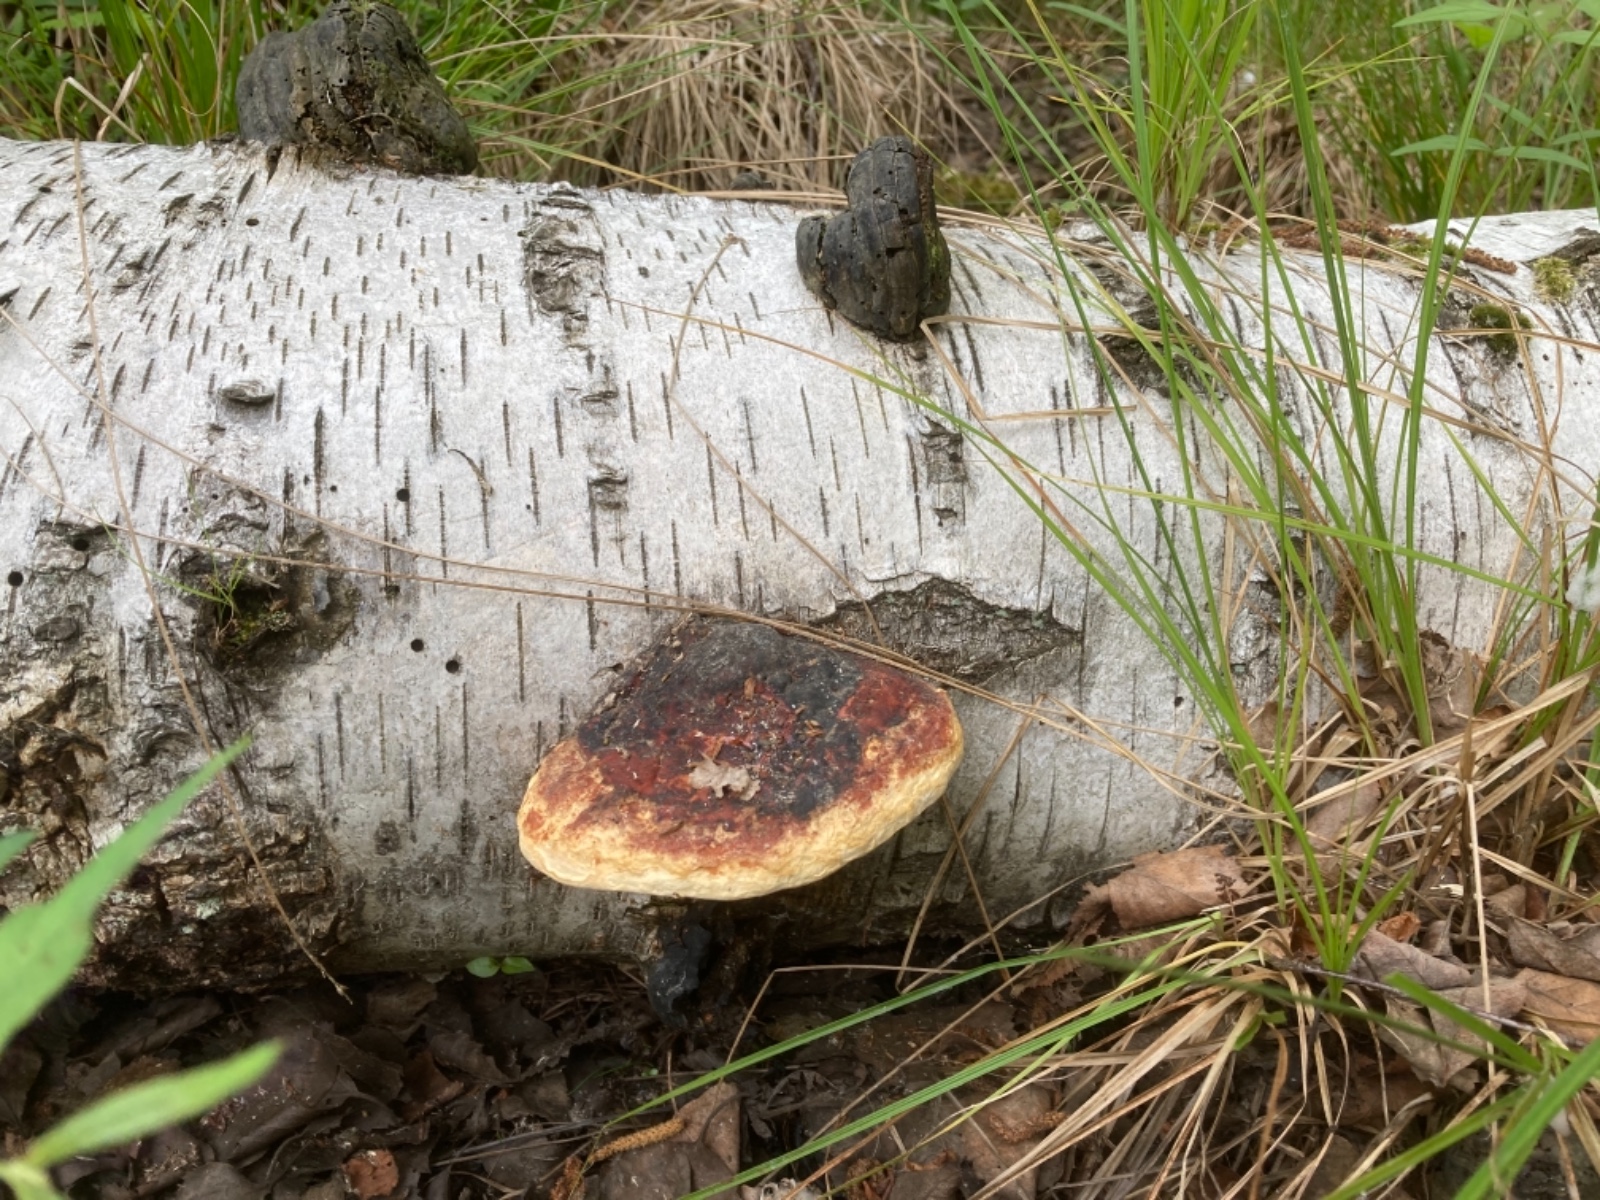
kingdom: Fungi
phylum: Basidiomycota
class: Agaricomycetes
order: Polyporales
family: Fomitopsidaceae
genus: Fomitopsis
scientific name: Fomitopsis pinicola
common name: randbæltet hovporesvamp
